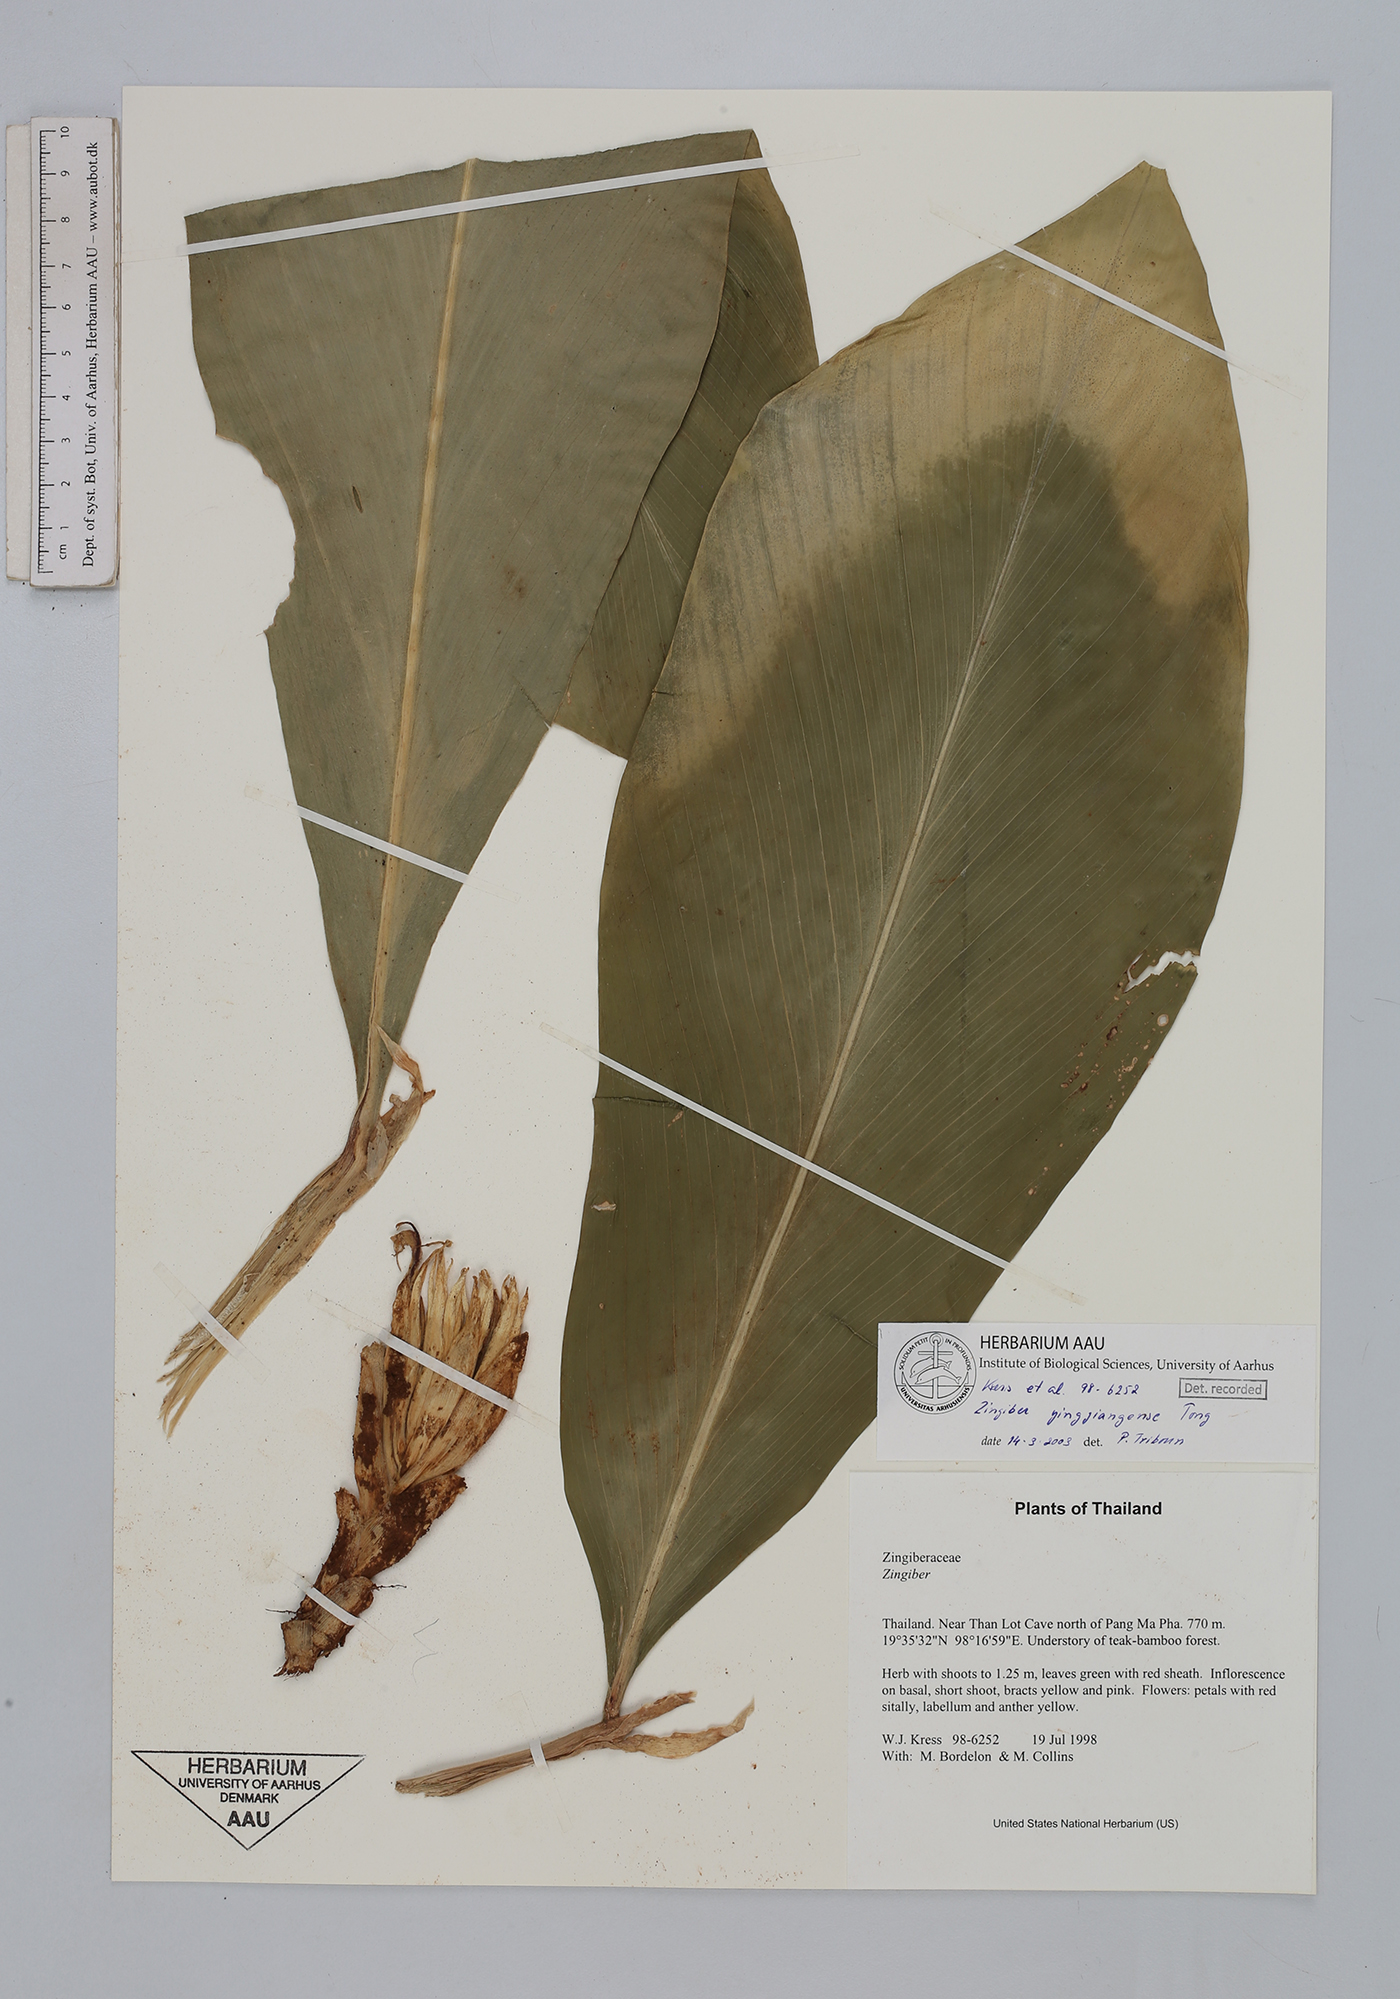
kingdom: Plantae
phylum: Tracheophyta
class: Liliopsida
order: Zingiberales
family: Zingiberaceae
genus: Zingiber
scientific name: Zingiber yingjiangense
